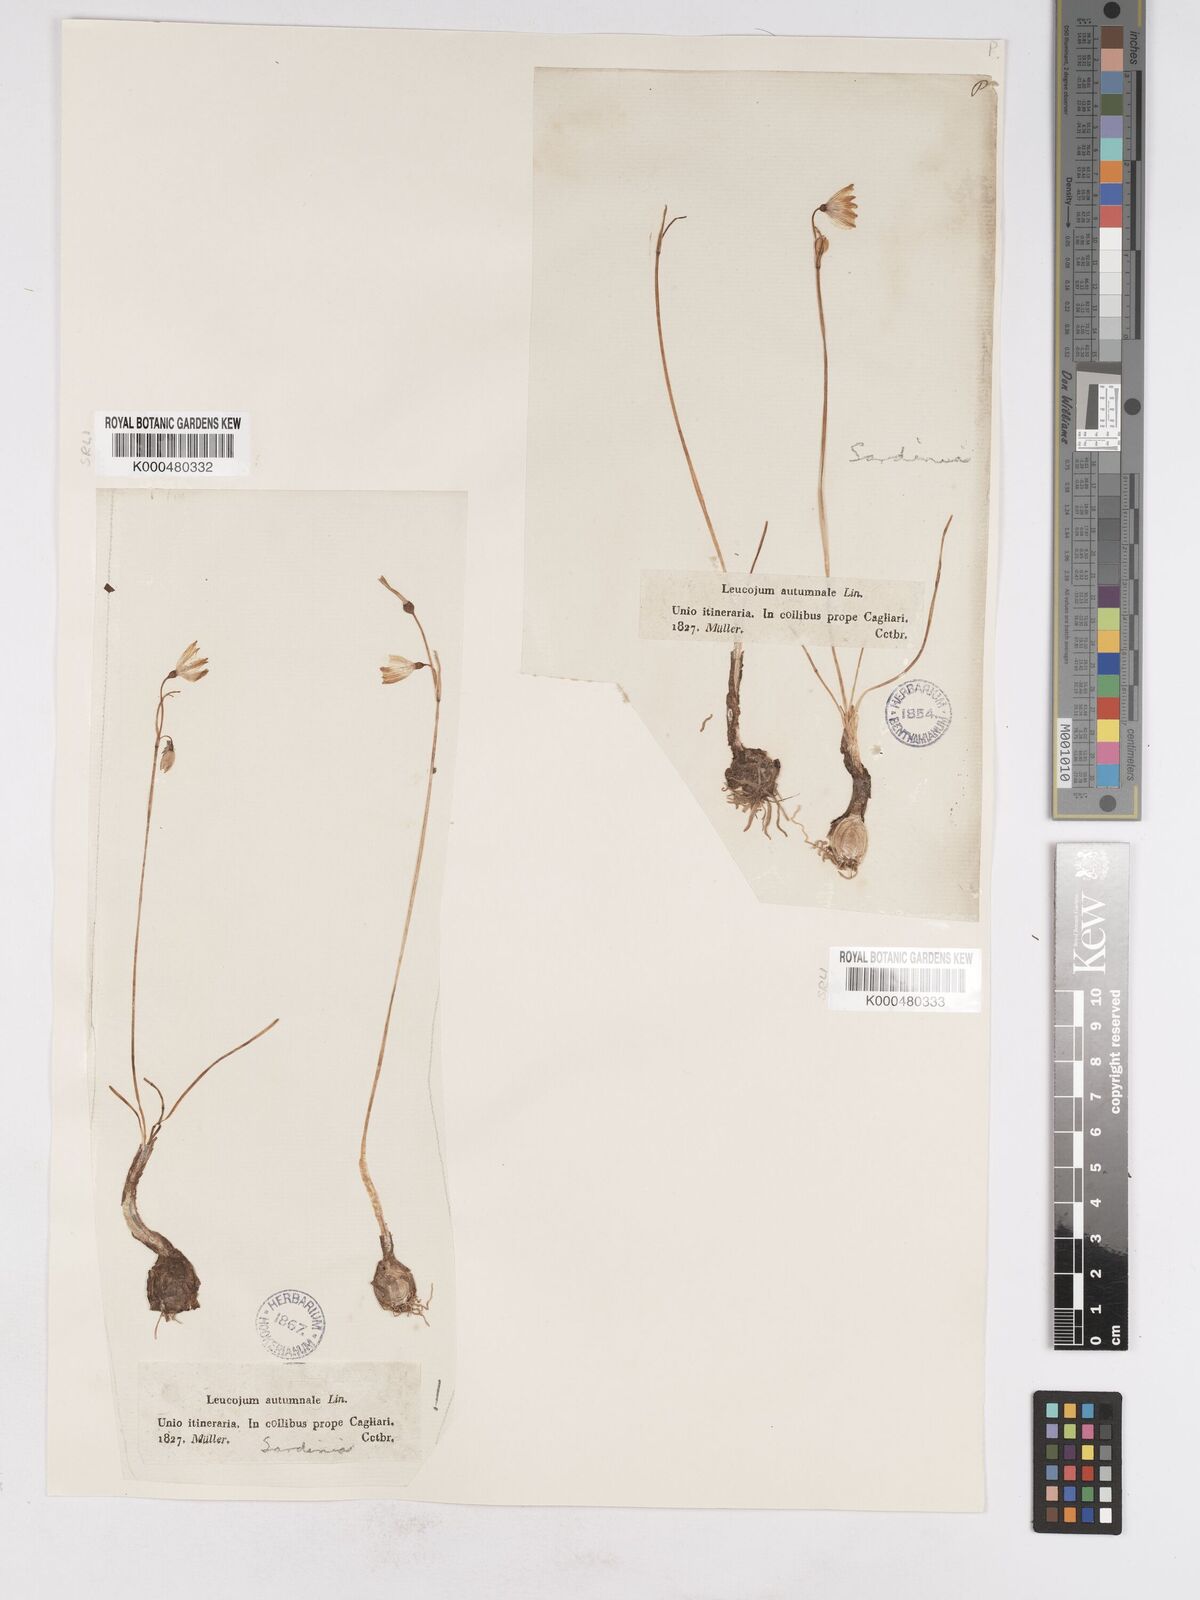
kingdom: Plantae
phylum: Tracheophyta
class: Liliopsida
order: Asparagales
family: Amaryllidaceae
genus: Acis
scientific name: Acis autumnalis
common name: Autumn snowflake
